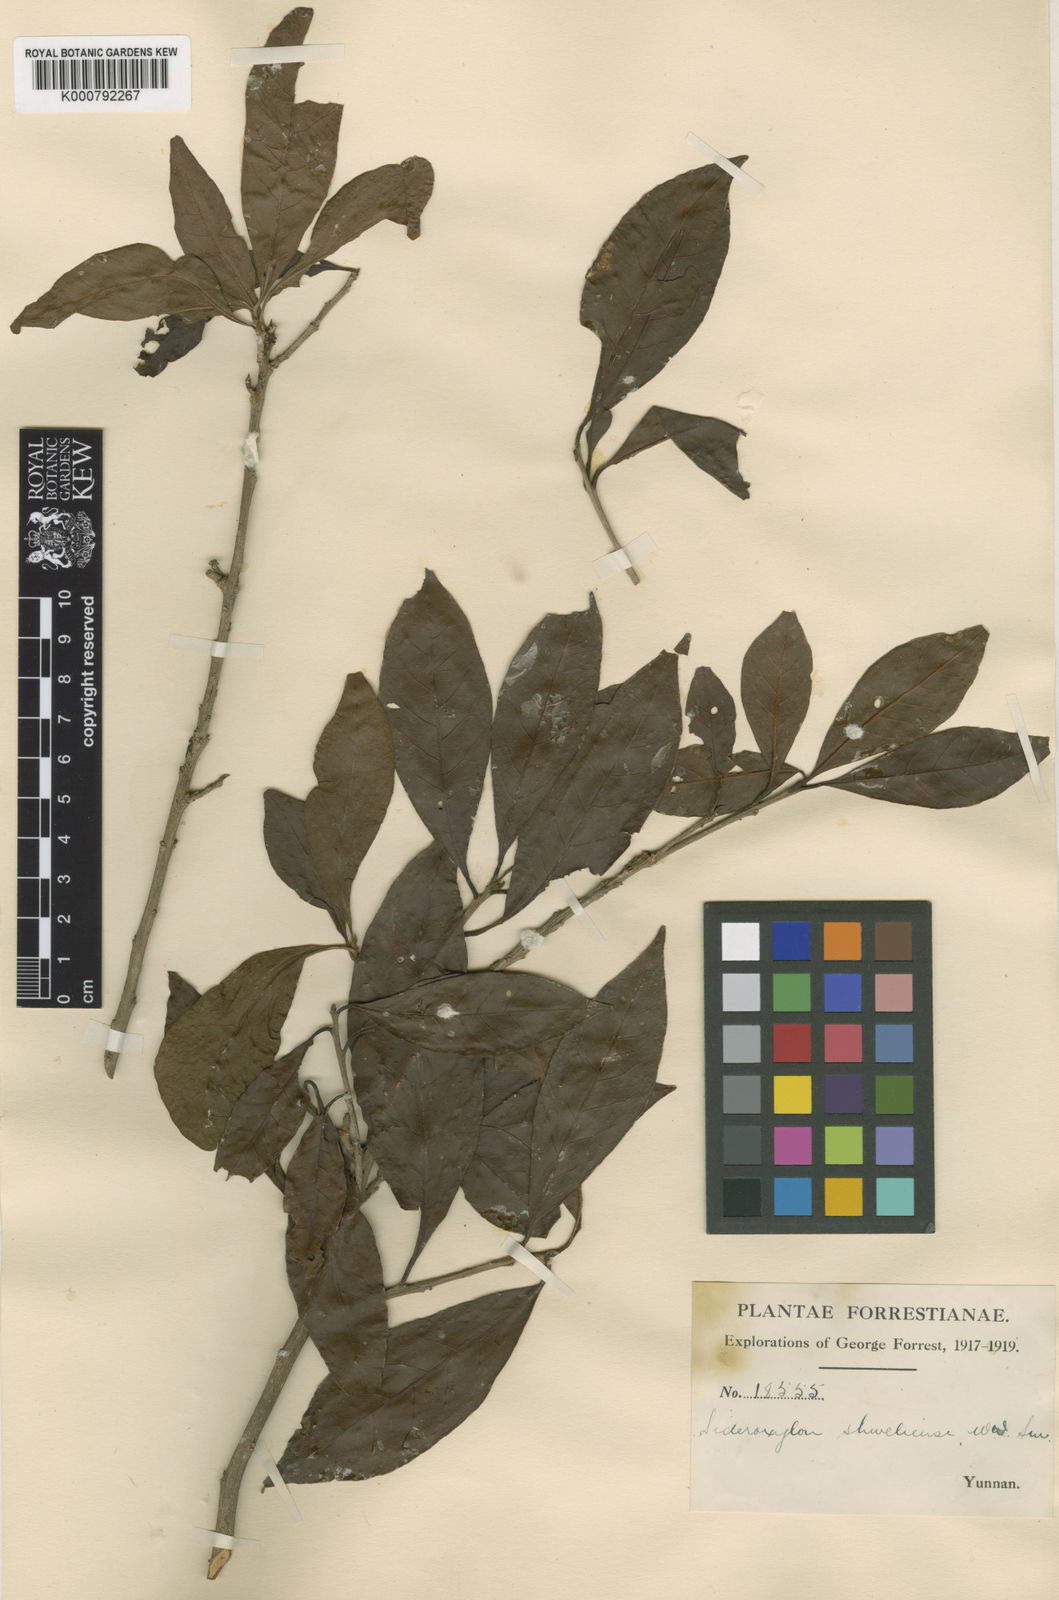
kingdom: Plantae
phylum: Tracheophyta
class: Magnoliopsida
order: Ericales
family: Sapotaceae
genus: Xantolis
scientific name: Xantolis shweliensis
